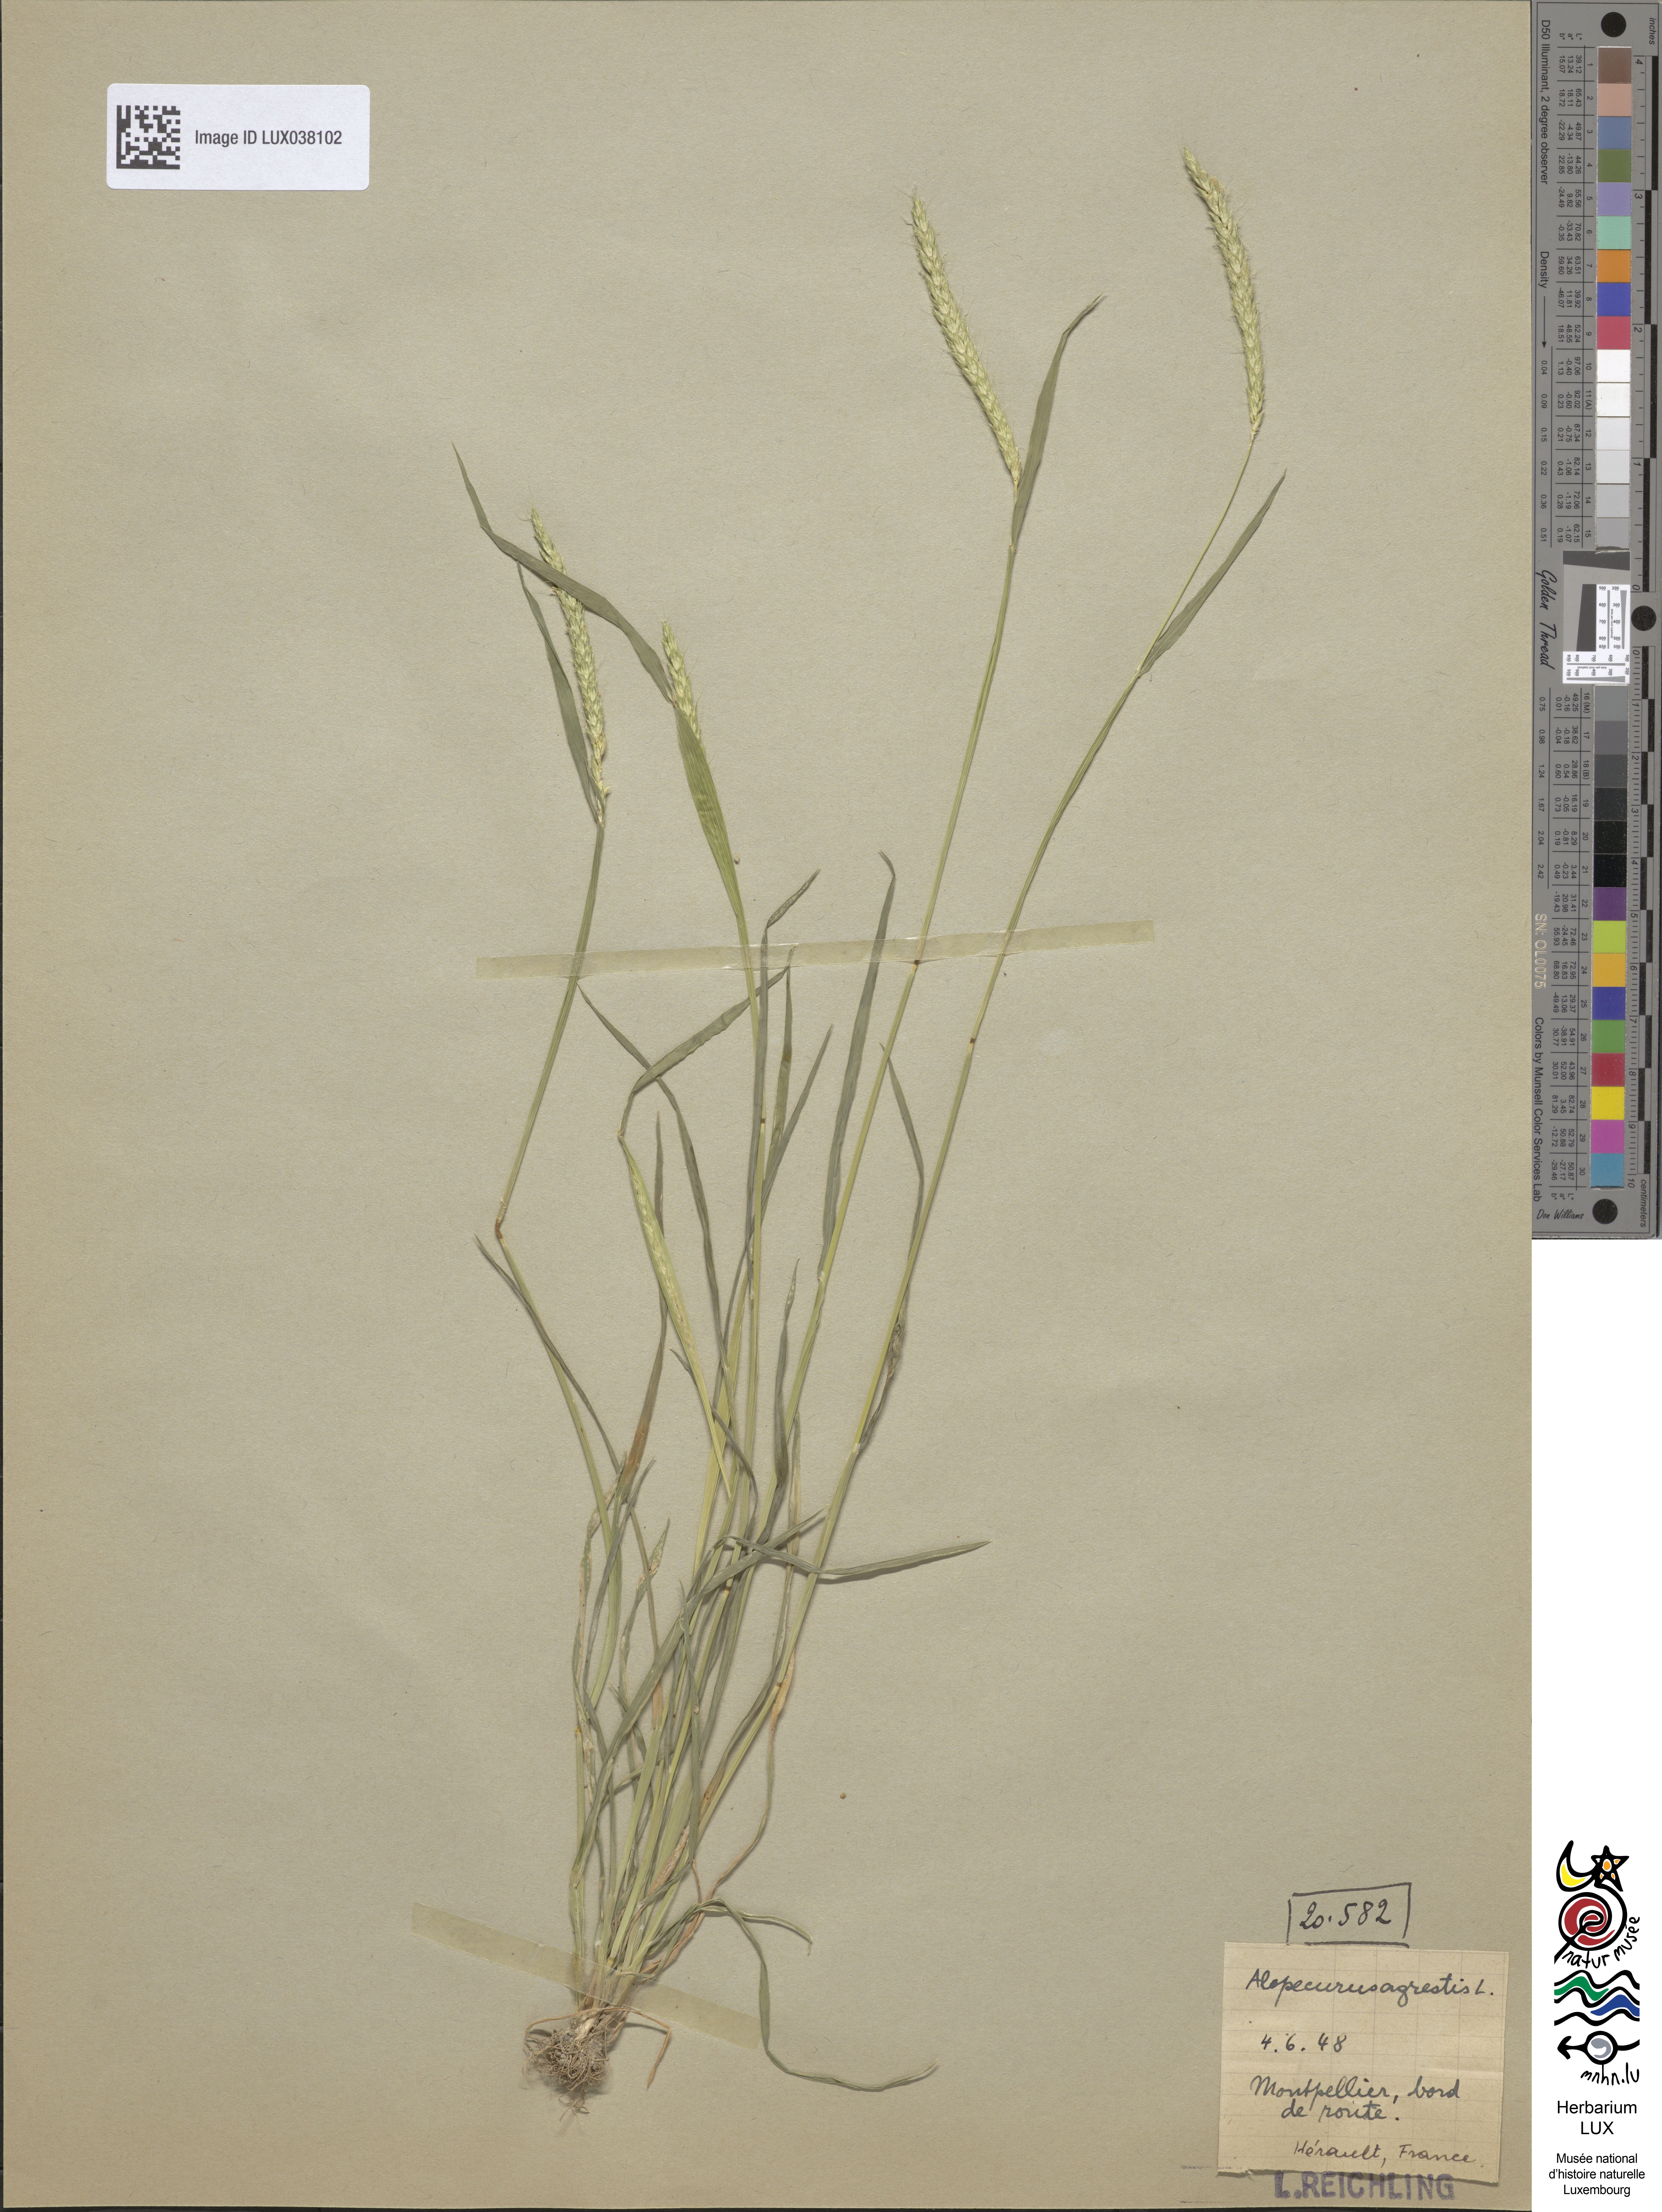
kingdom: Plantae
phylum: Tracheophyta
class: Liliopsida
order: Poales
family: Poaceae
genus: Alopecurus
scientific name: Alopecurus myosuroides
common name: Black-grass
